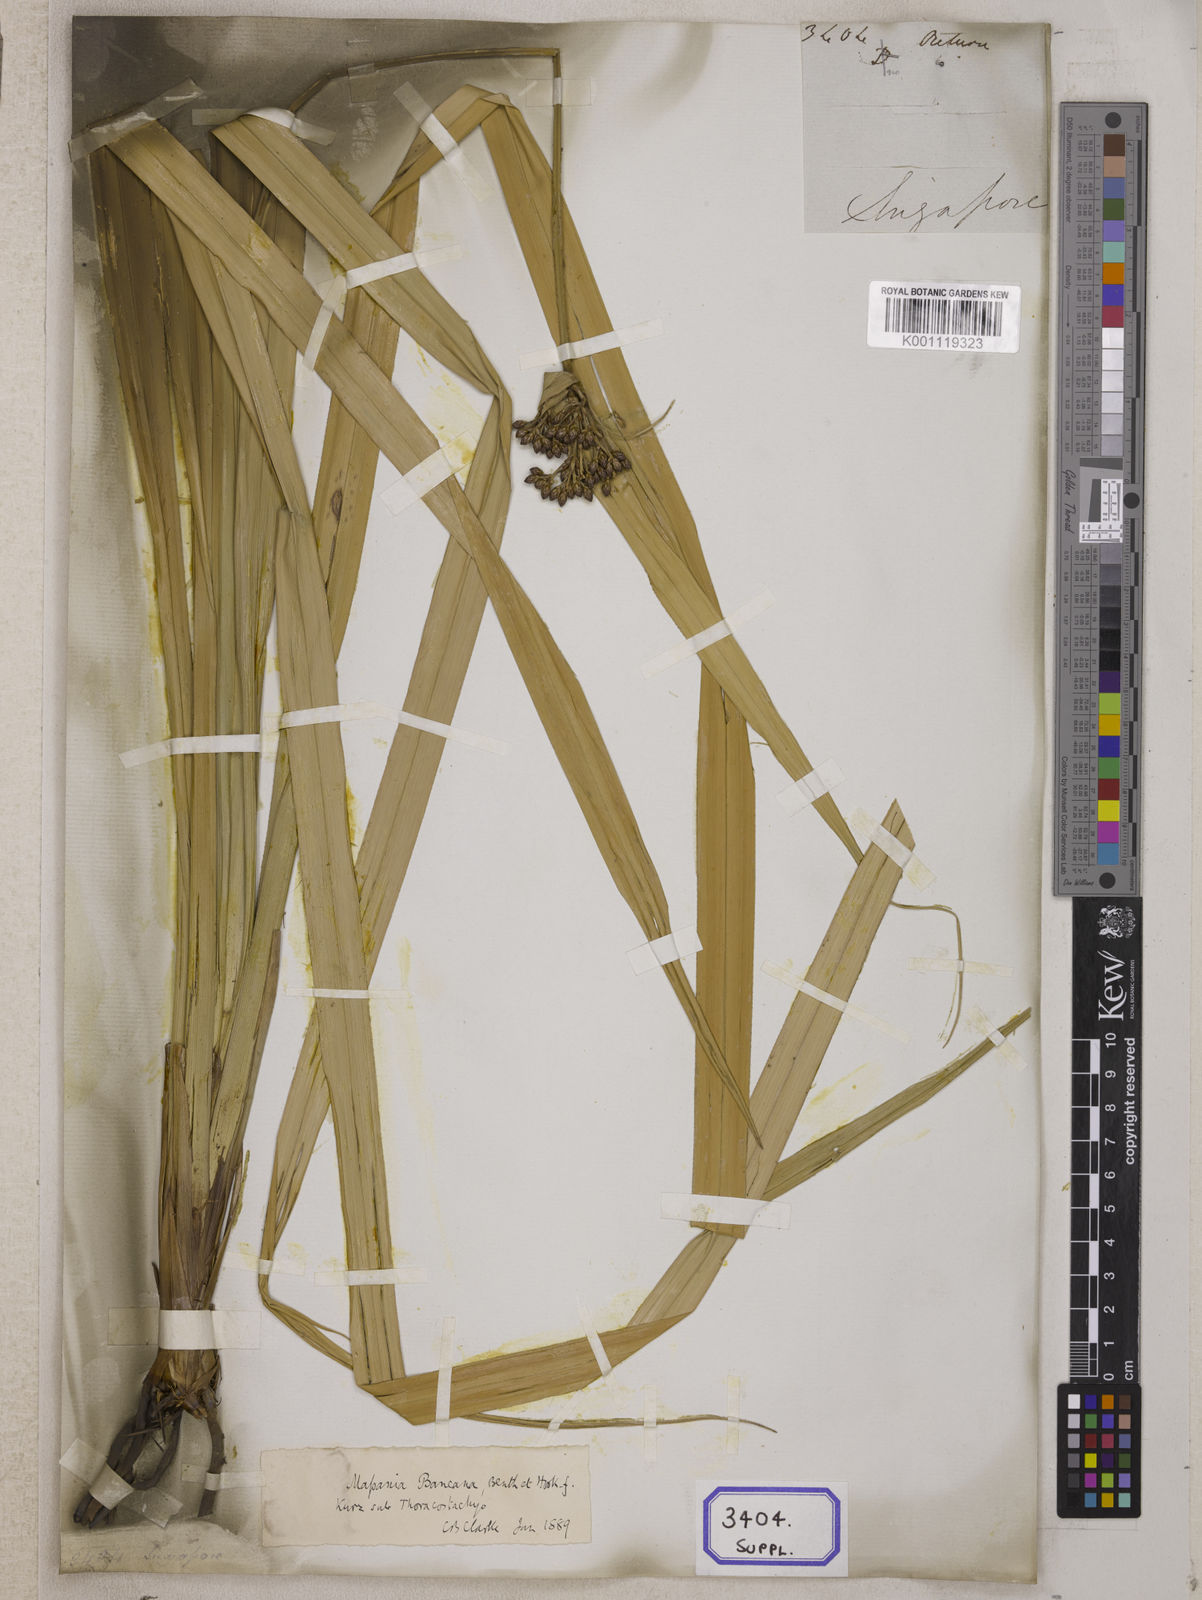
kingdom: Plantae
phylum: Tracheophyta
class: Liliopsida
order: Poales
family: Cyperaceae
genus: Hypolytrum
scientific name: Hypolytrum
